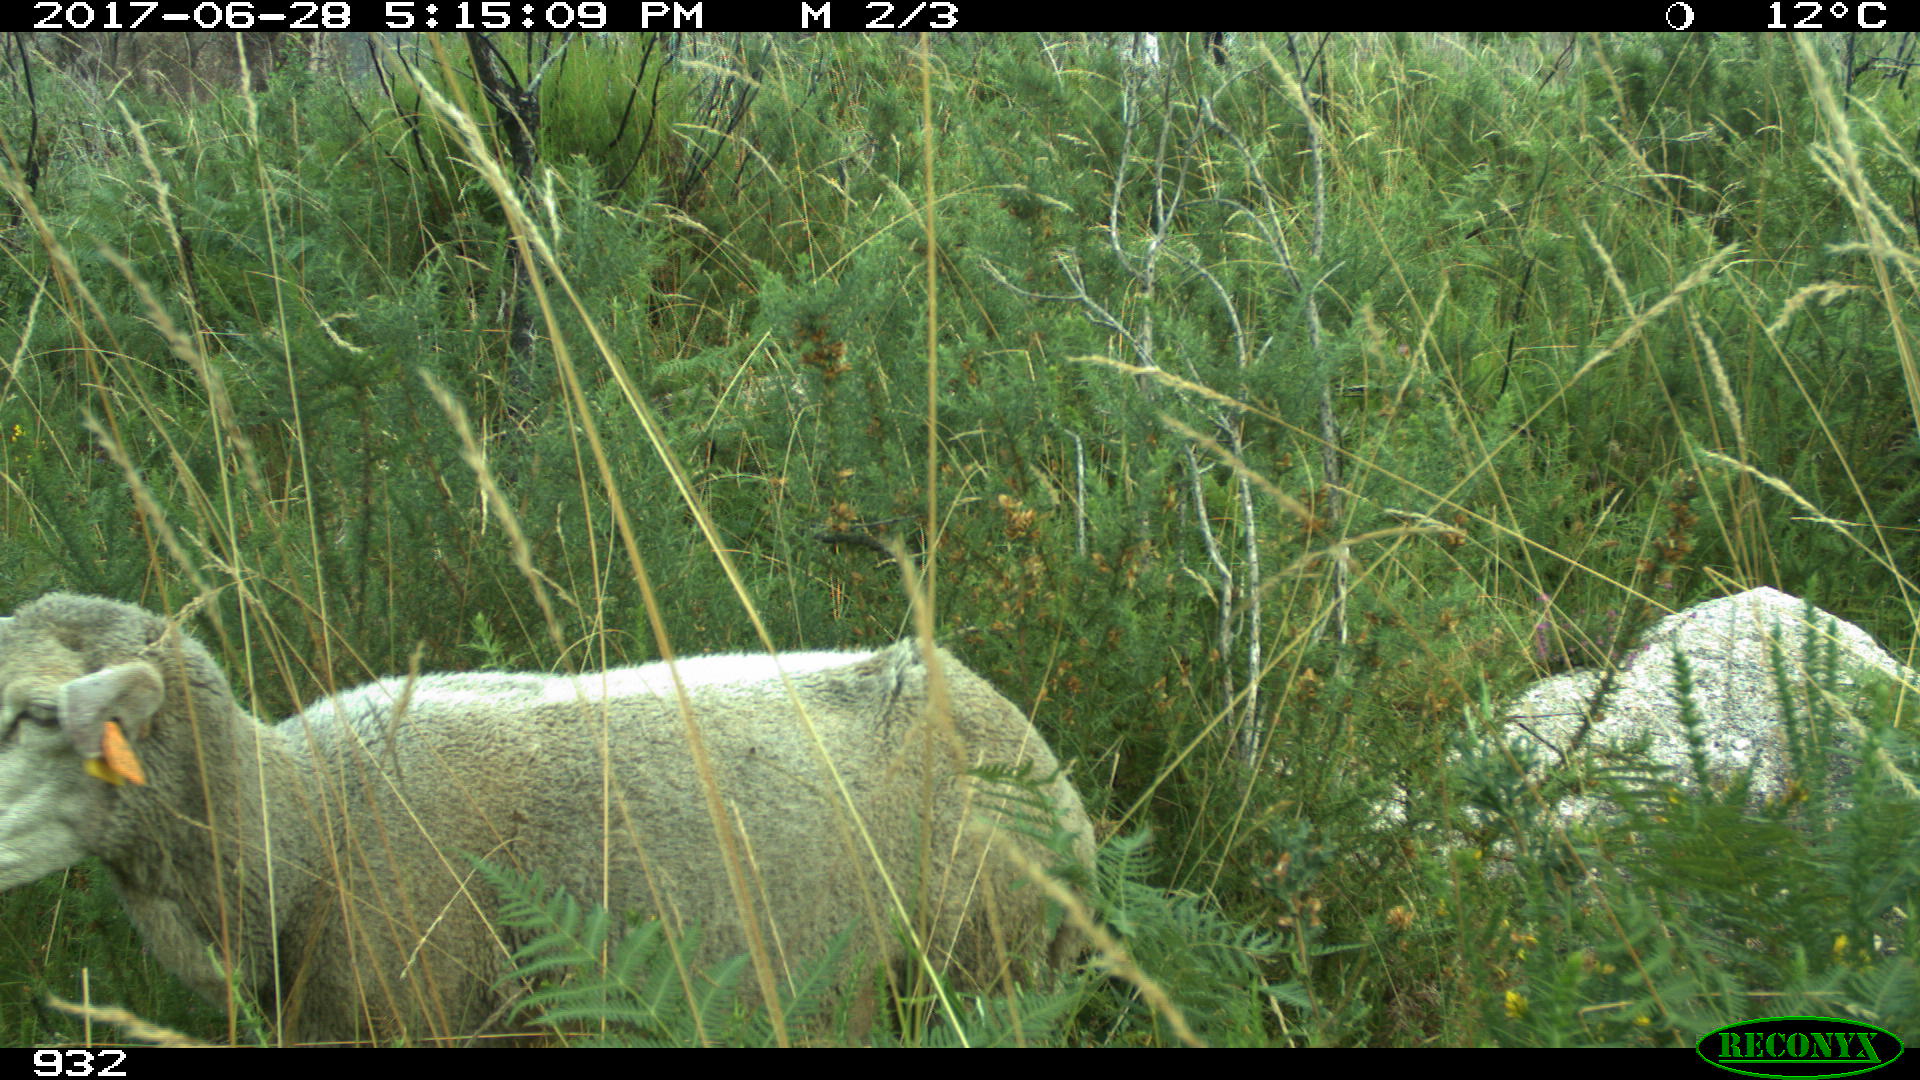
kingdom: Animalia
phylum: Chordata
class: Mammalia
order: Artiodactyla
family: Bovidae
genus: Ovis
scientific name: Ovis aries
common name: Domestic sheep
